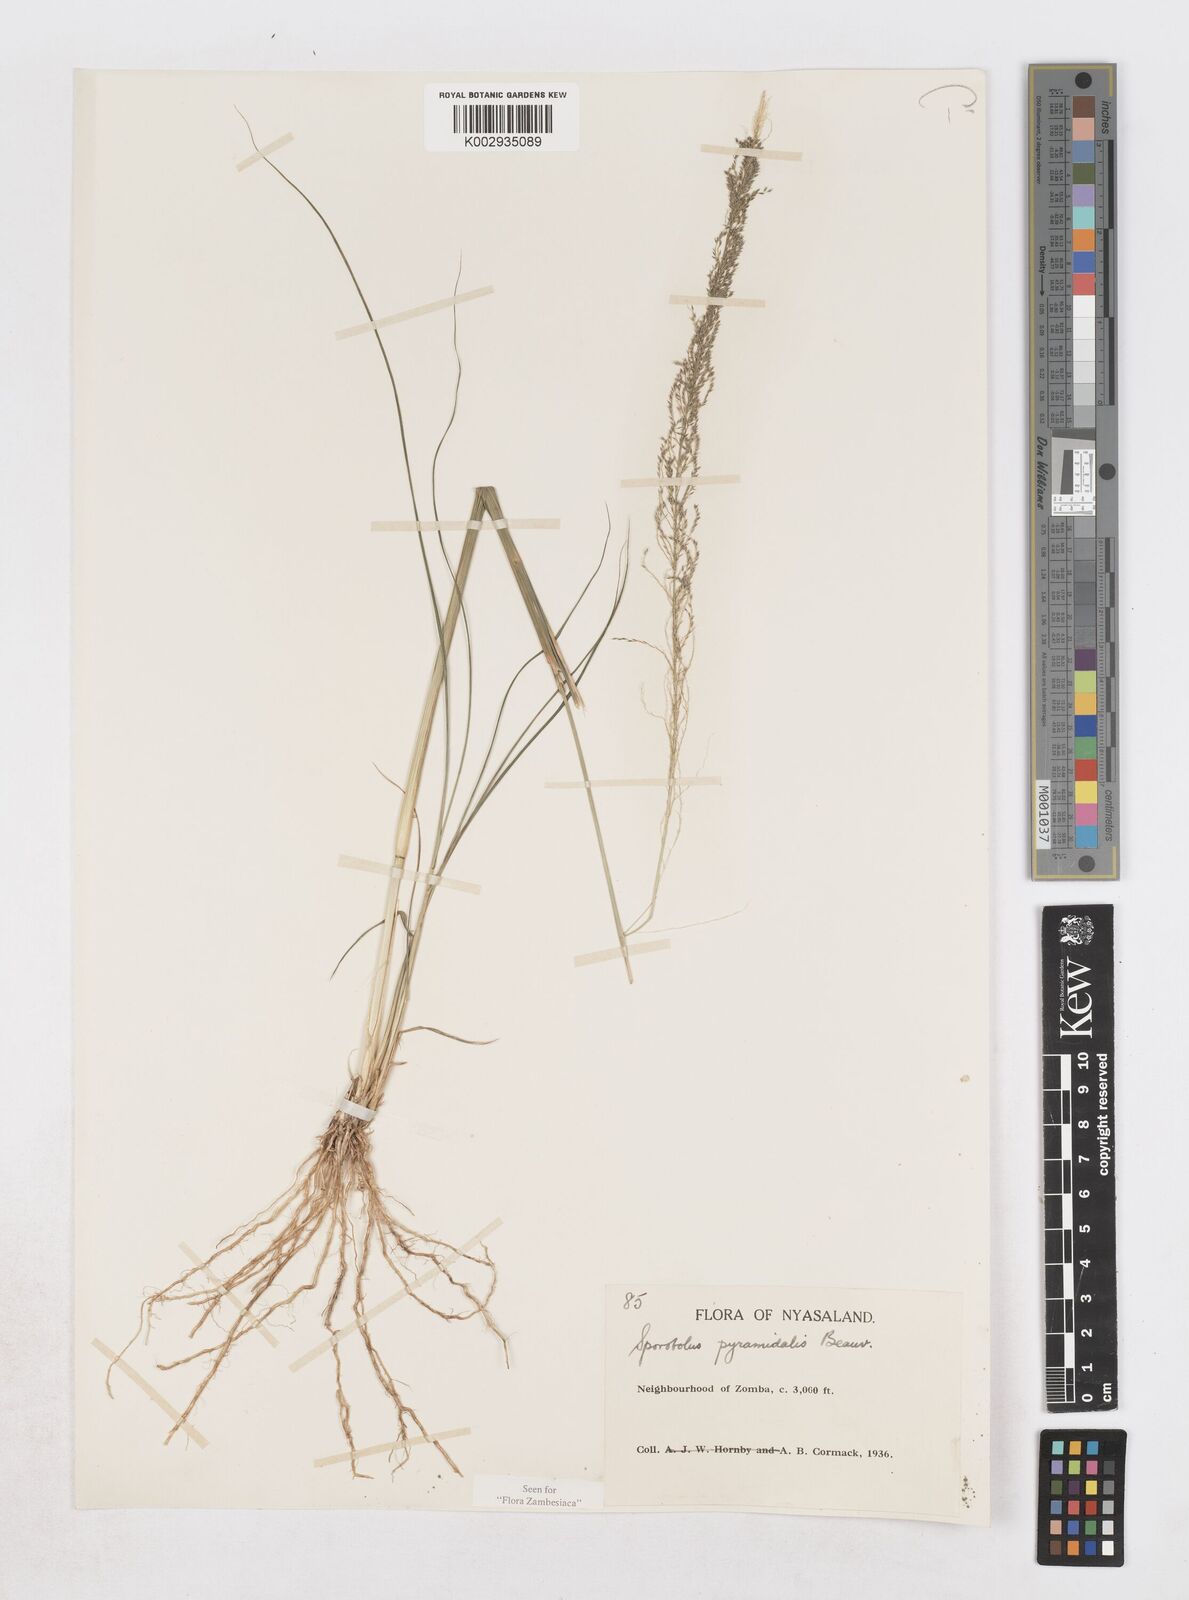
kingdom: Plantae
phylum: Tracheophyta
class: Liliopsida
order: Poales
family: Poaceae
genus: Sporobolus
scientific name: Sporobolus pyramidalis
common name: West indian dropseed
